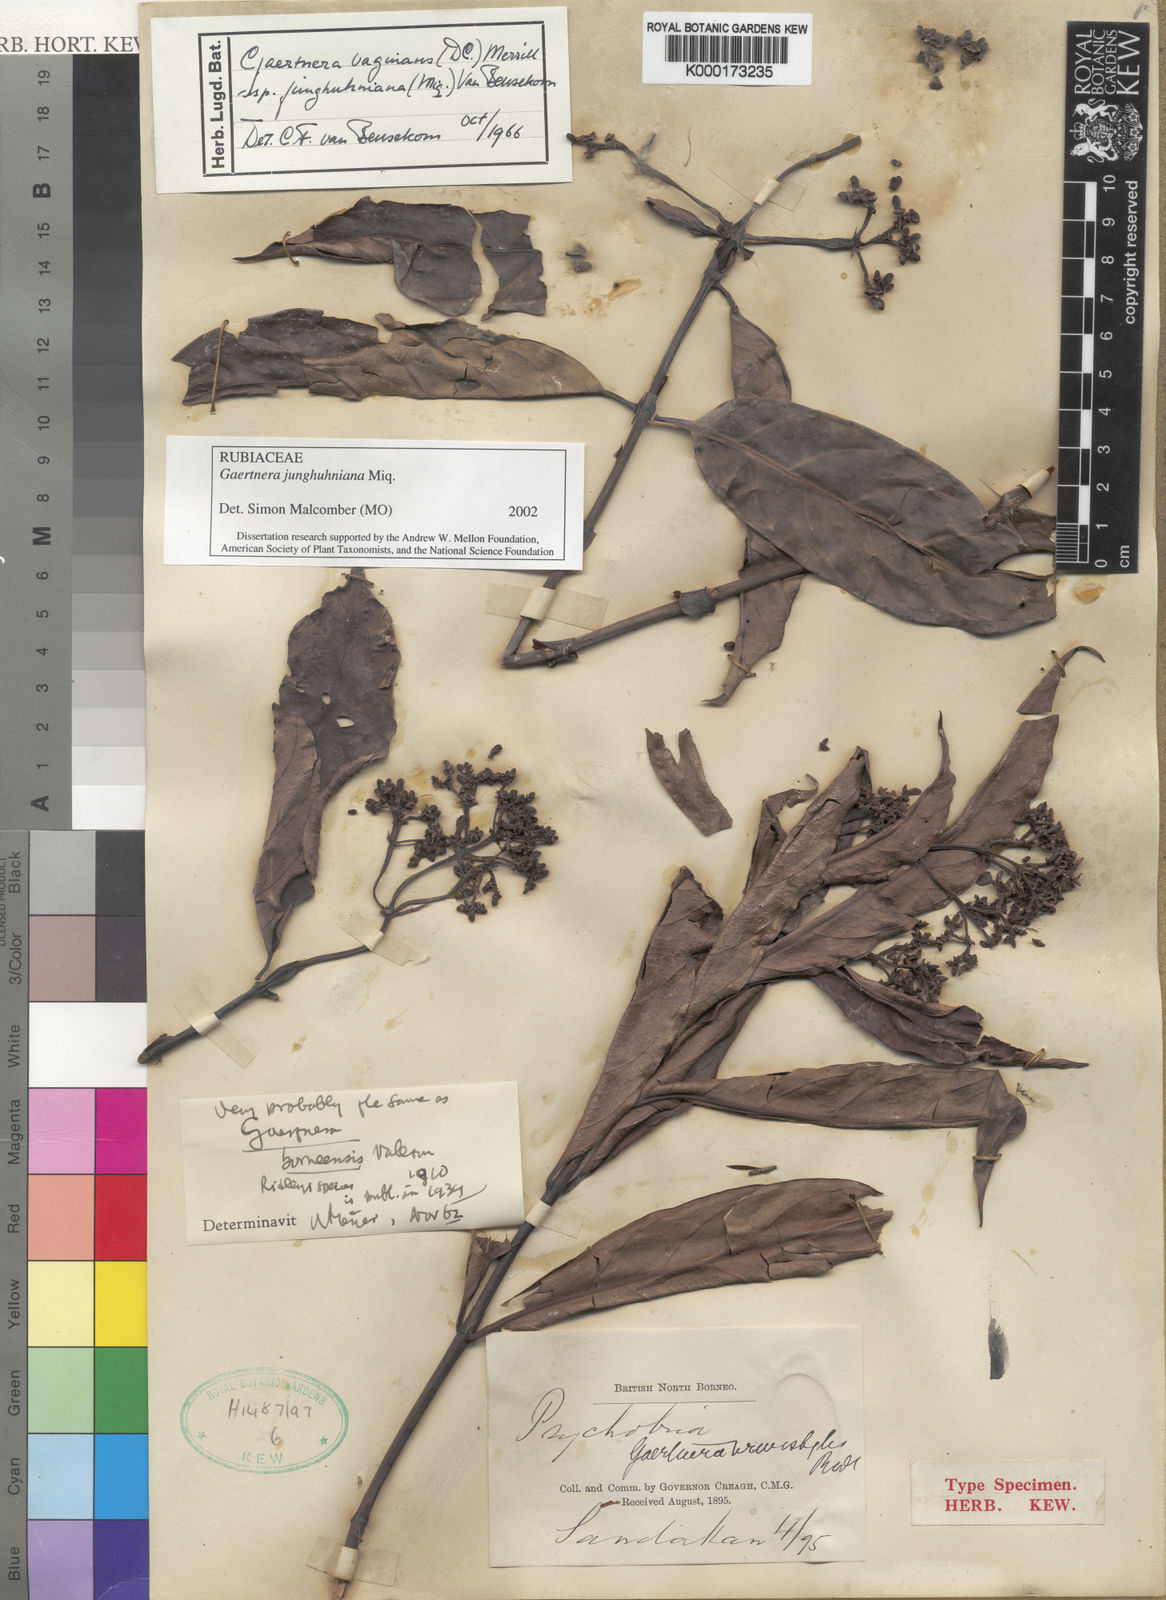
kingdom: Plantae
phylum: Tracheophyta
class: Magnoliopsida
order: Gentianales
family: Rubiaceae
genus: Gaertnera
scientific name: Gaertnera junghuhniana
